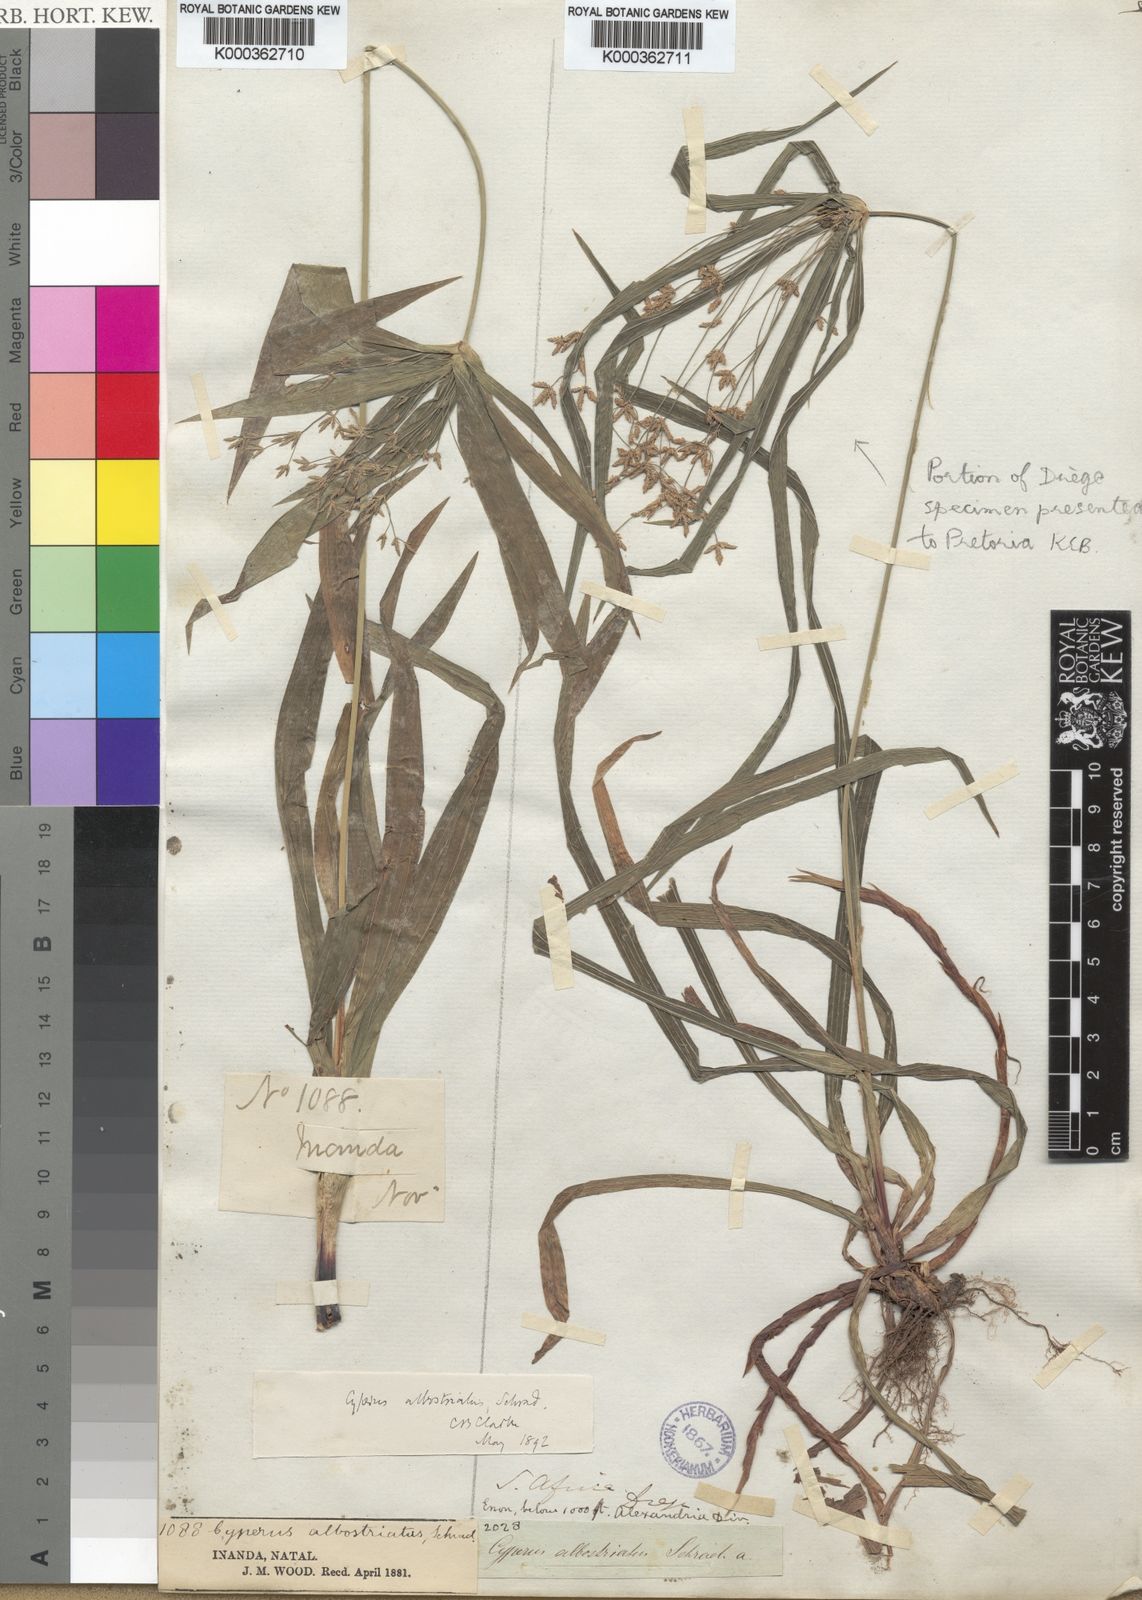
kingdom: Plantae
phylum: Tracheophyta
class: Liliopsida
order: Poales
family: Cyperaceae
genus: Cyperus
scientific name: Cyperus albostriatus
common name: Dwarf umbrella-grass
